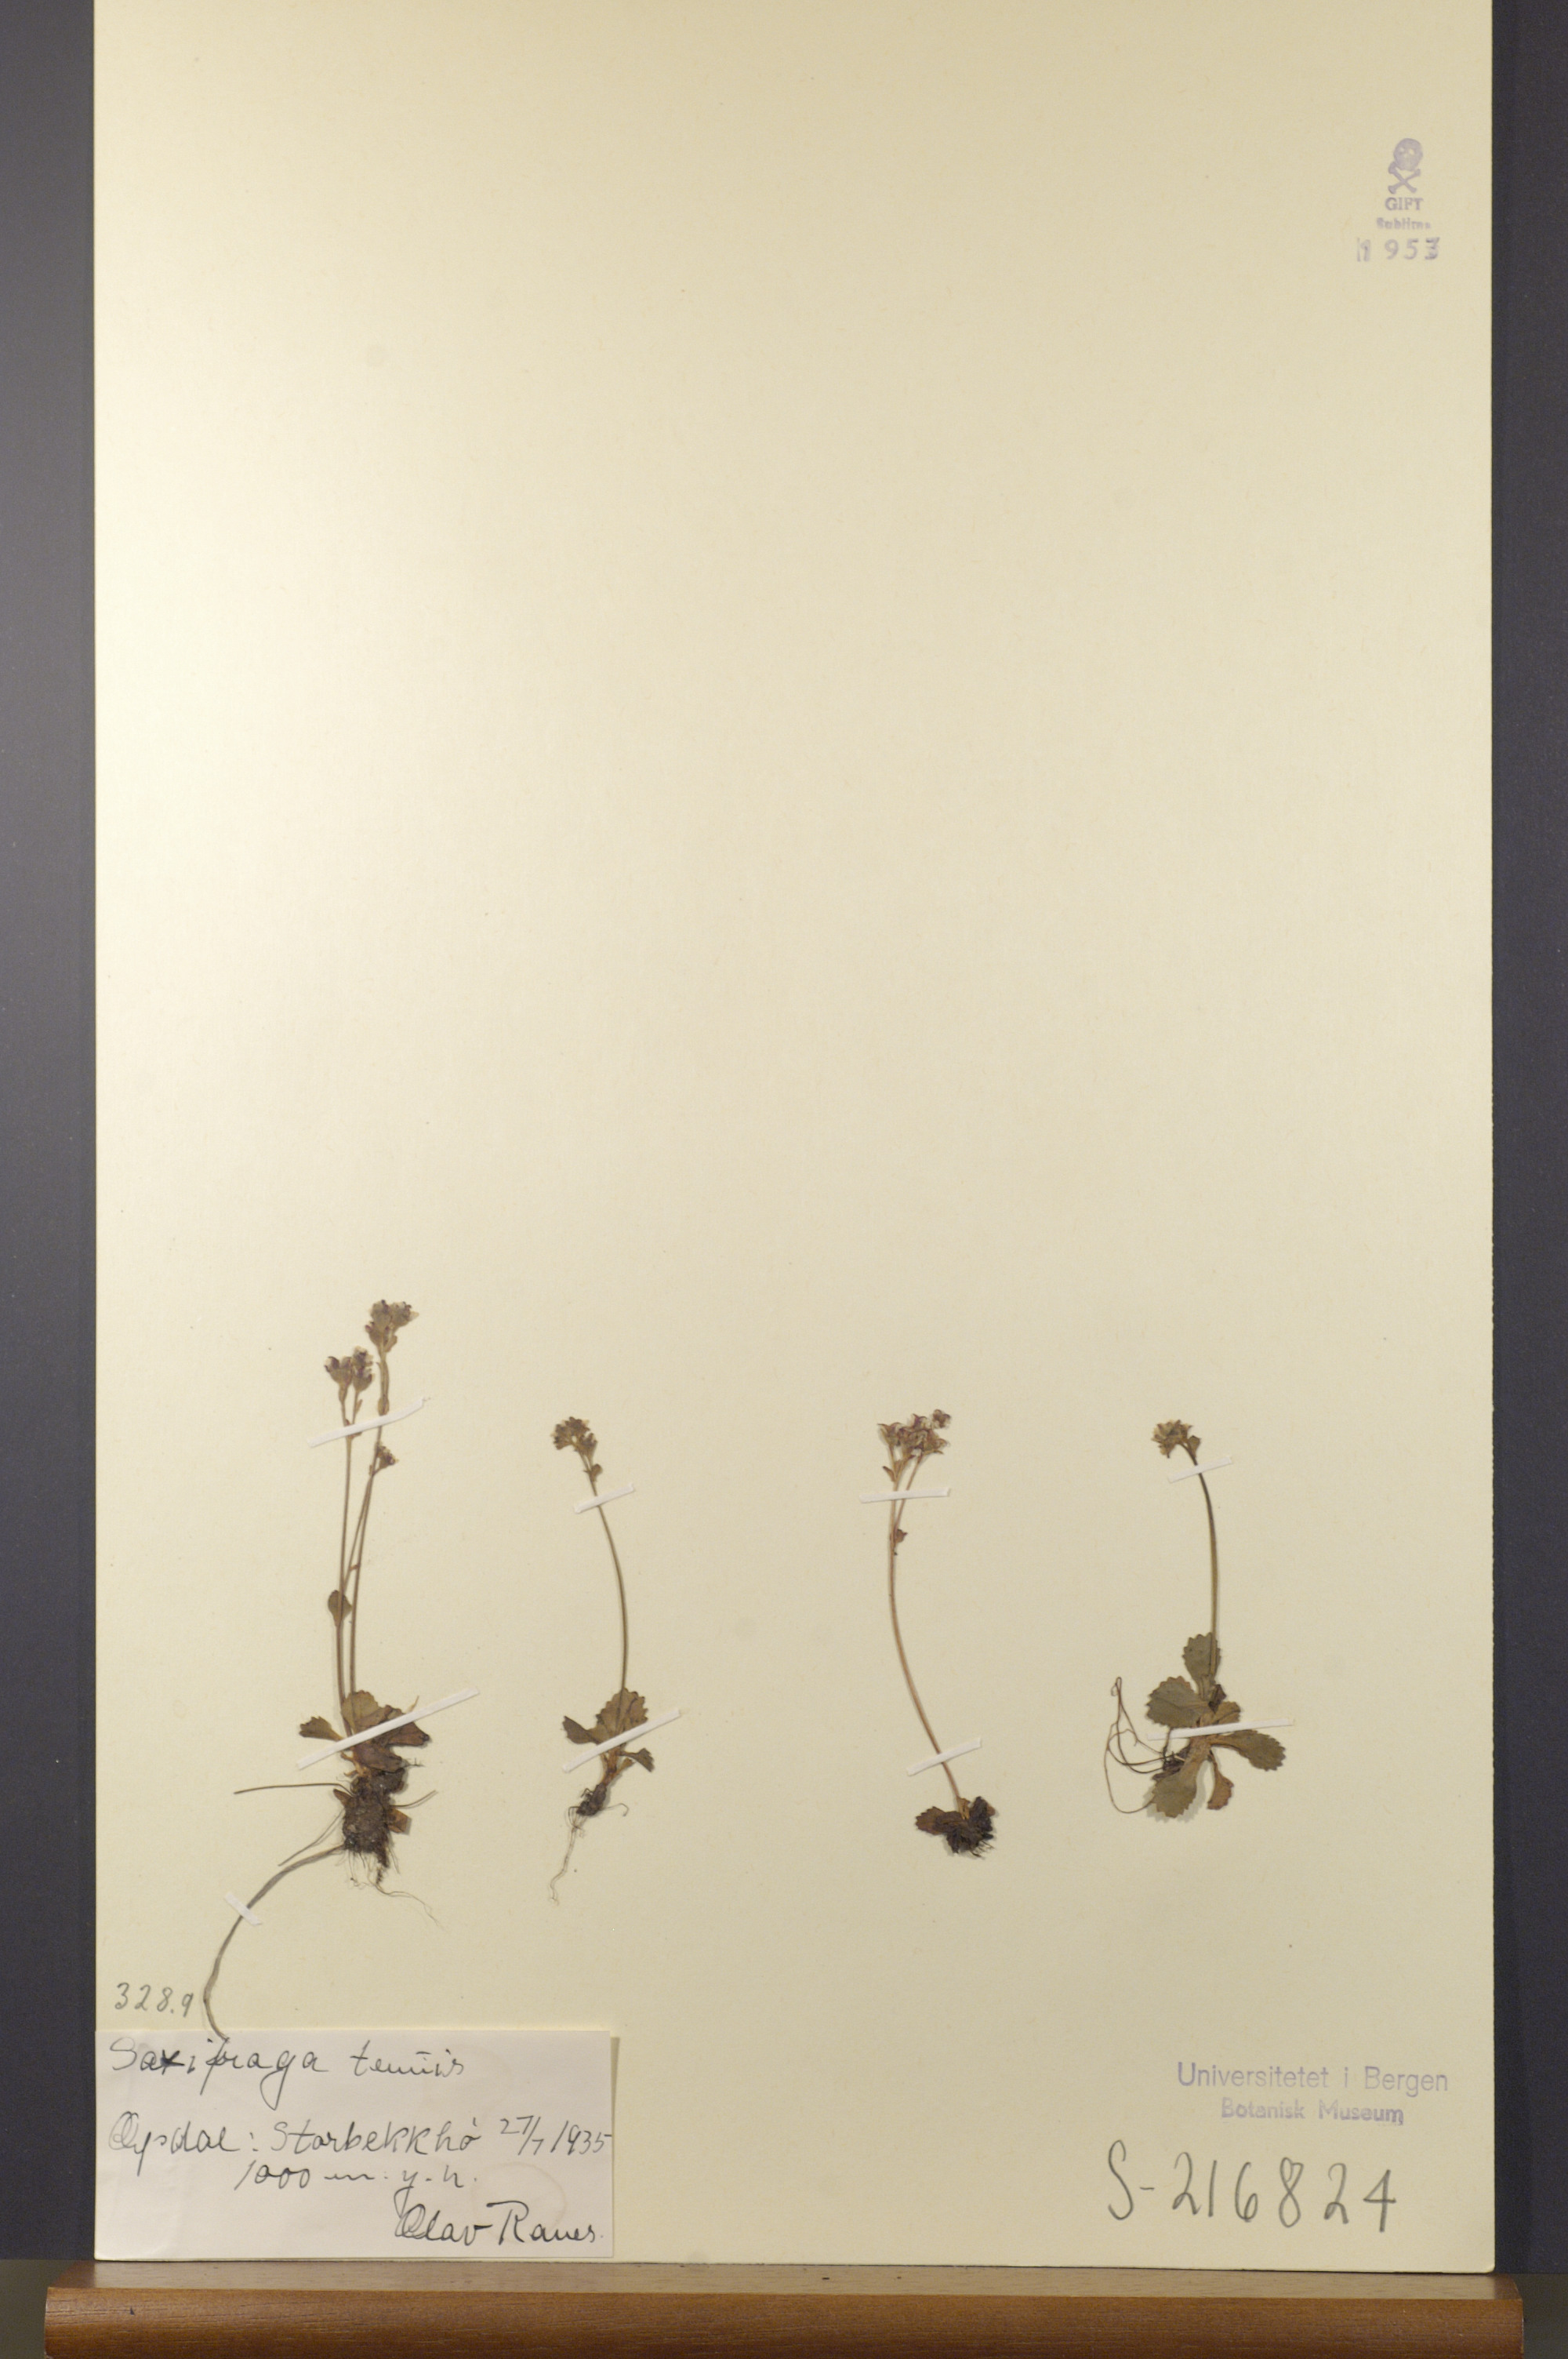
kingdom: Plantae
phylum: Tracheophyta
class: Magnoliopsida
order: Saxifragales
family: Saxifragaceae
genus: Micranthes
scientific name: Micranthes tenuis
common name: Ottertail pass saxifrage
